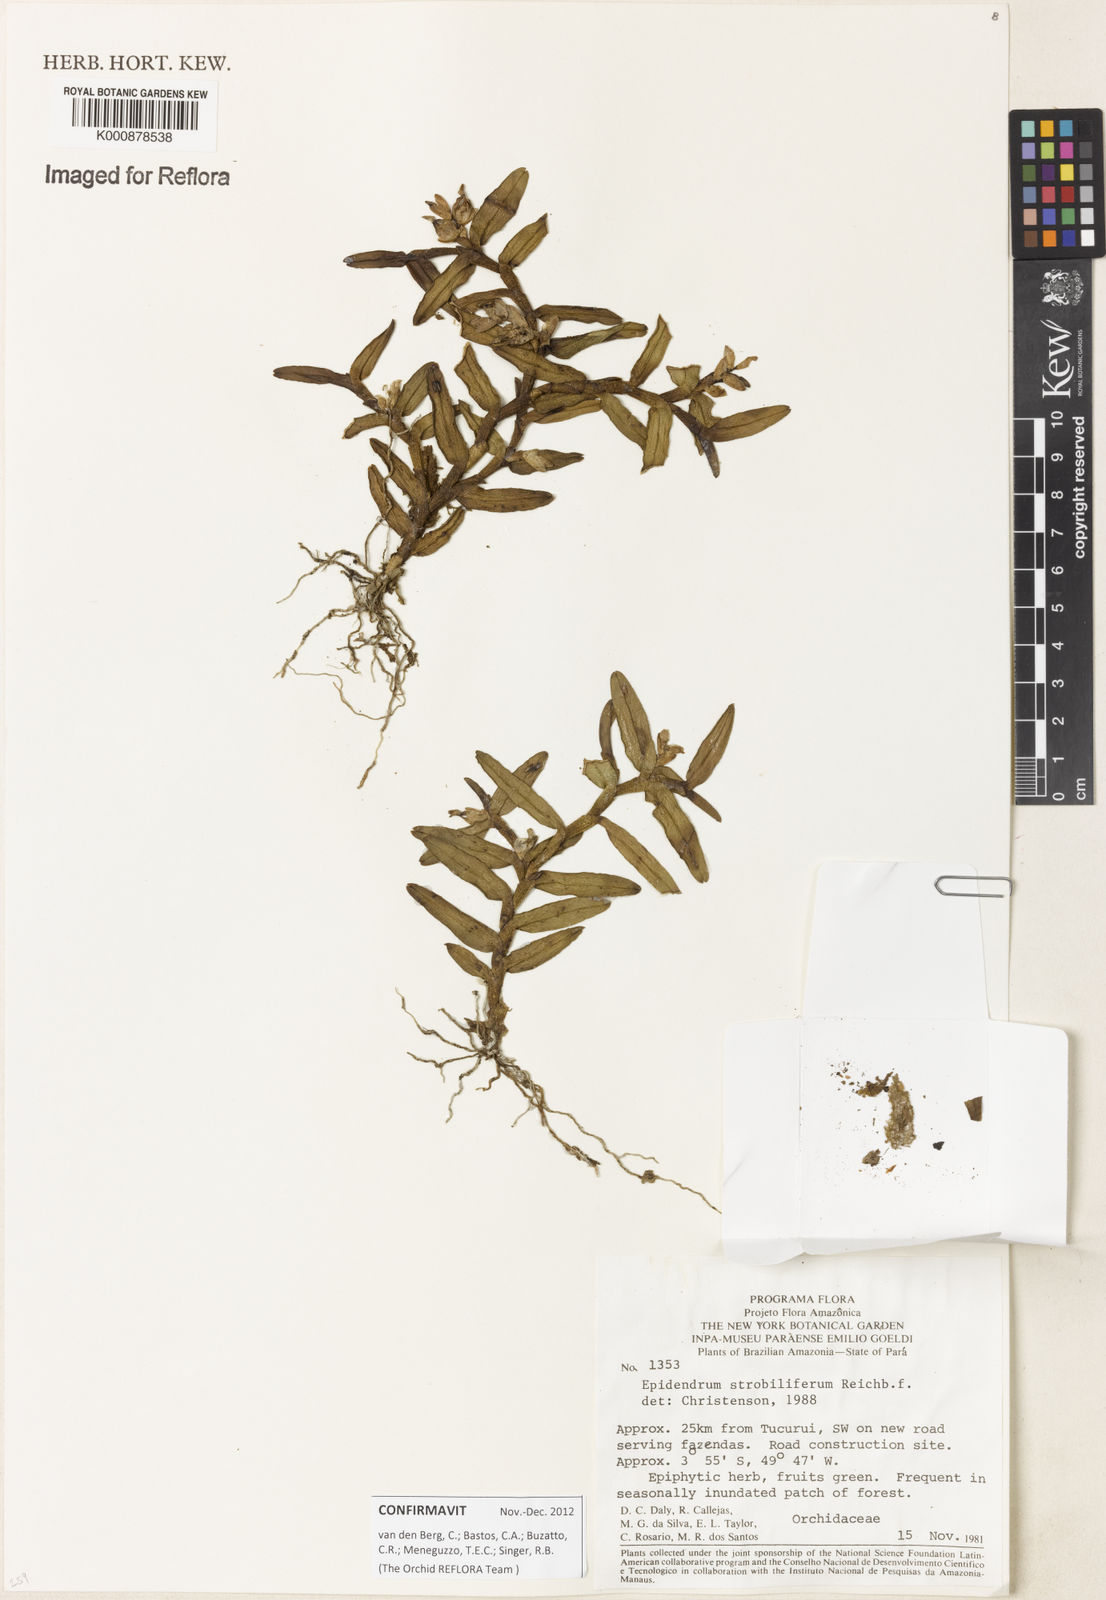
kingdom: Plantae
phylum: Tracheophyta
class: Liliopsida
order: Asparagales
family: Orchidaceae
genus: Epidendrum
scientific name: Epidendrum strobiliferum
